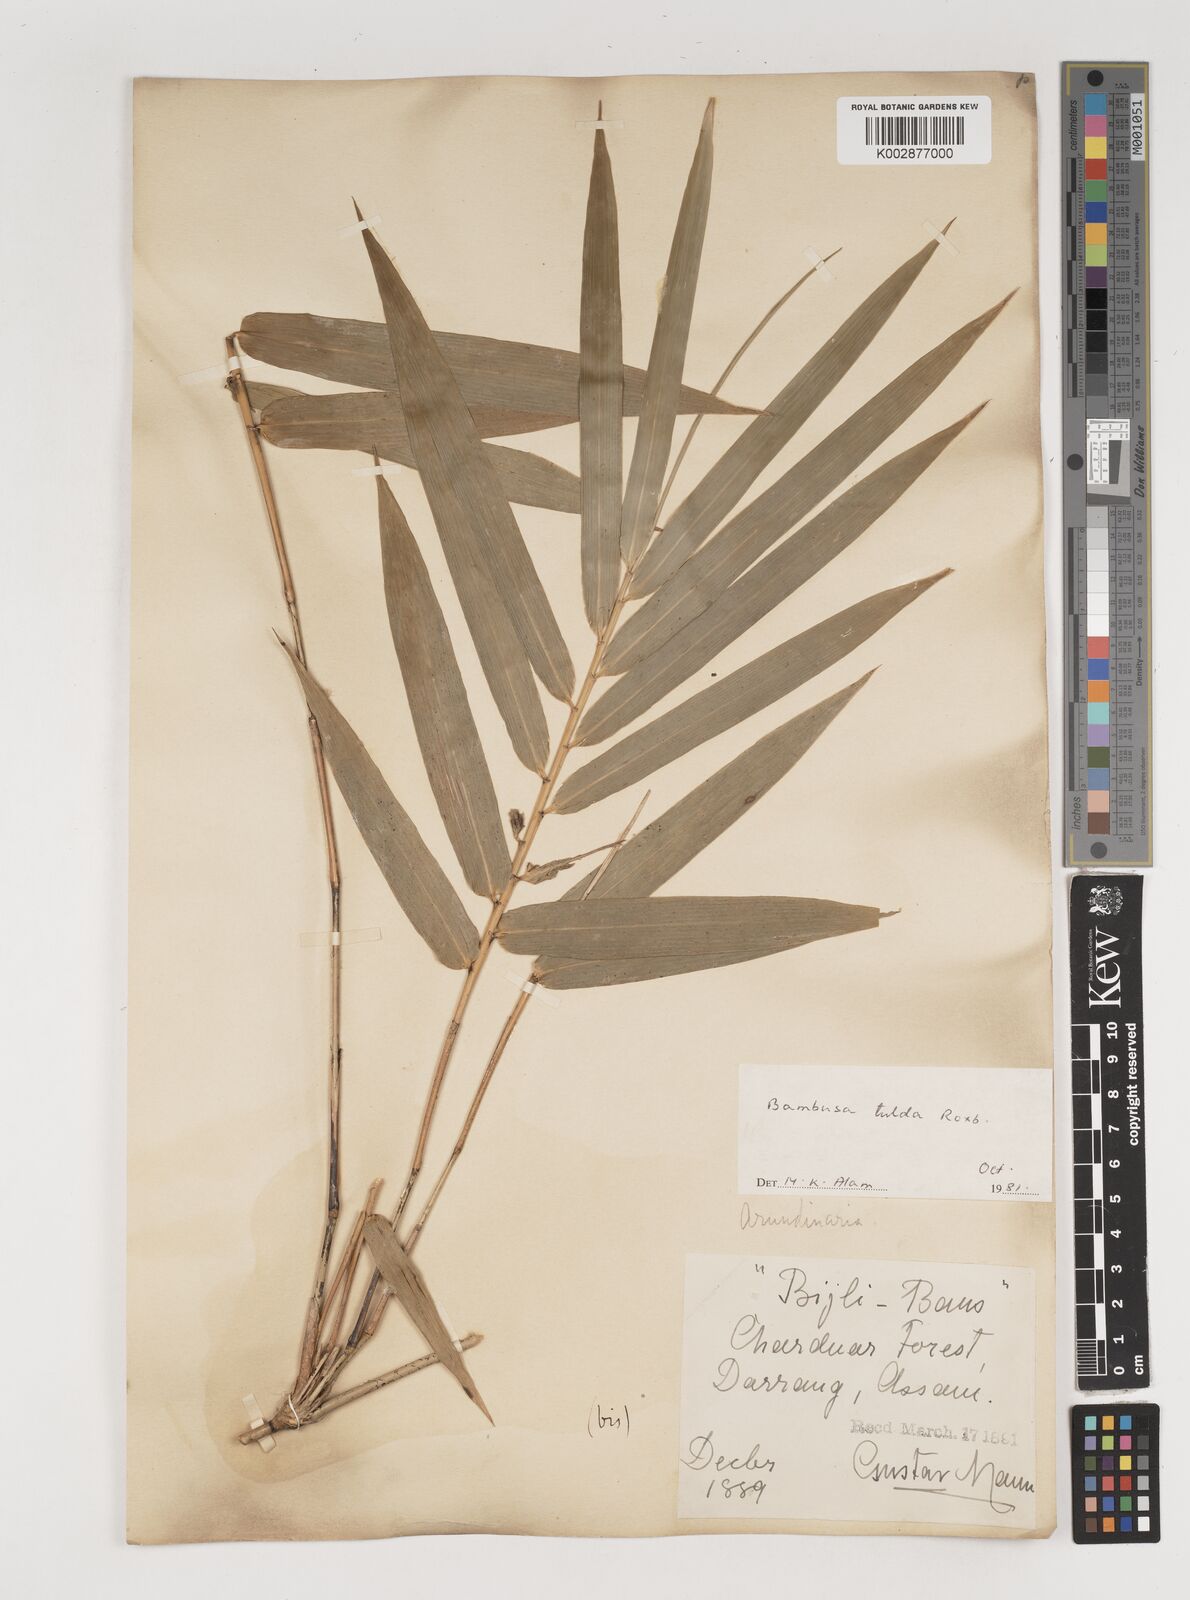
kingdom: Plantae
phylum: Tracheophyta
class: Liliopsida
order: Poales
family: Poaceae
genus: Bambusa
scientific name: Bambusa tulda
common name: Bengal bamboo
